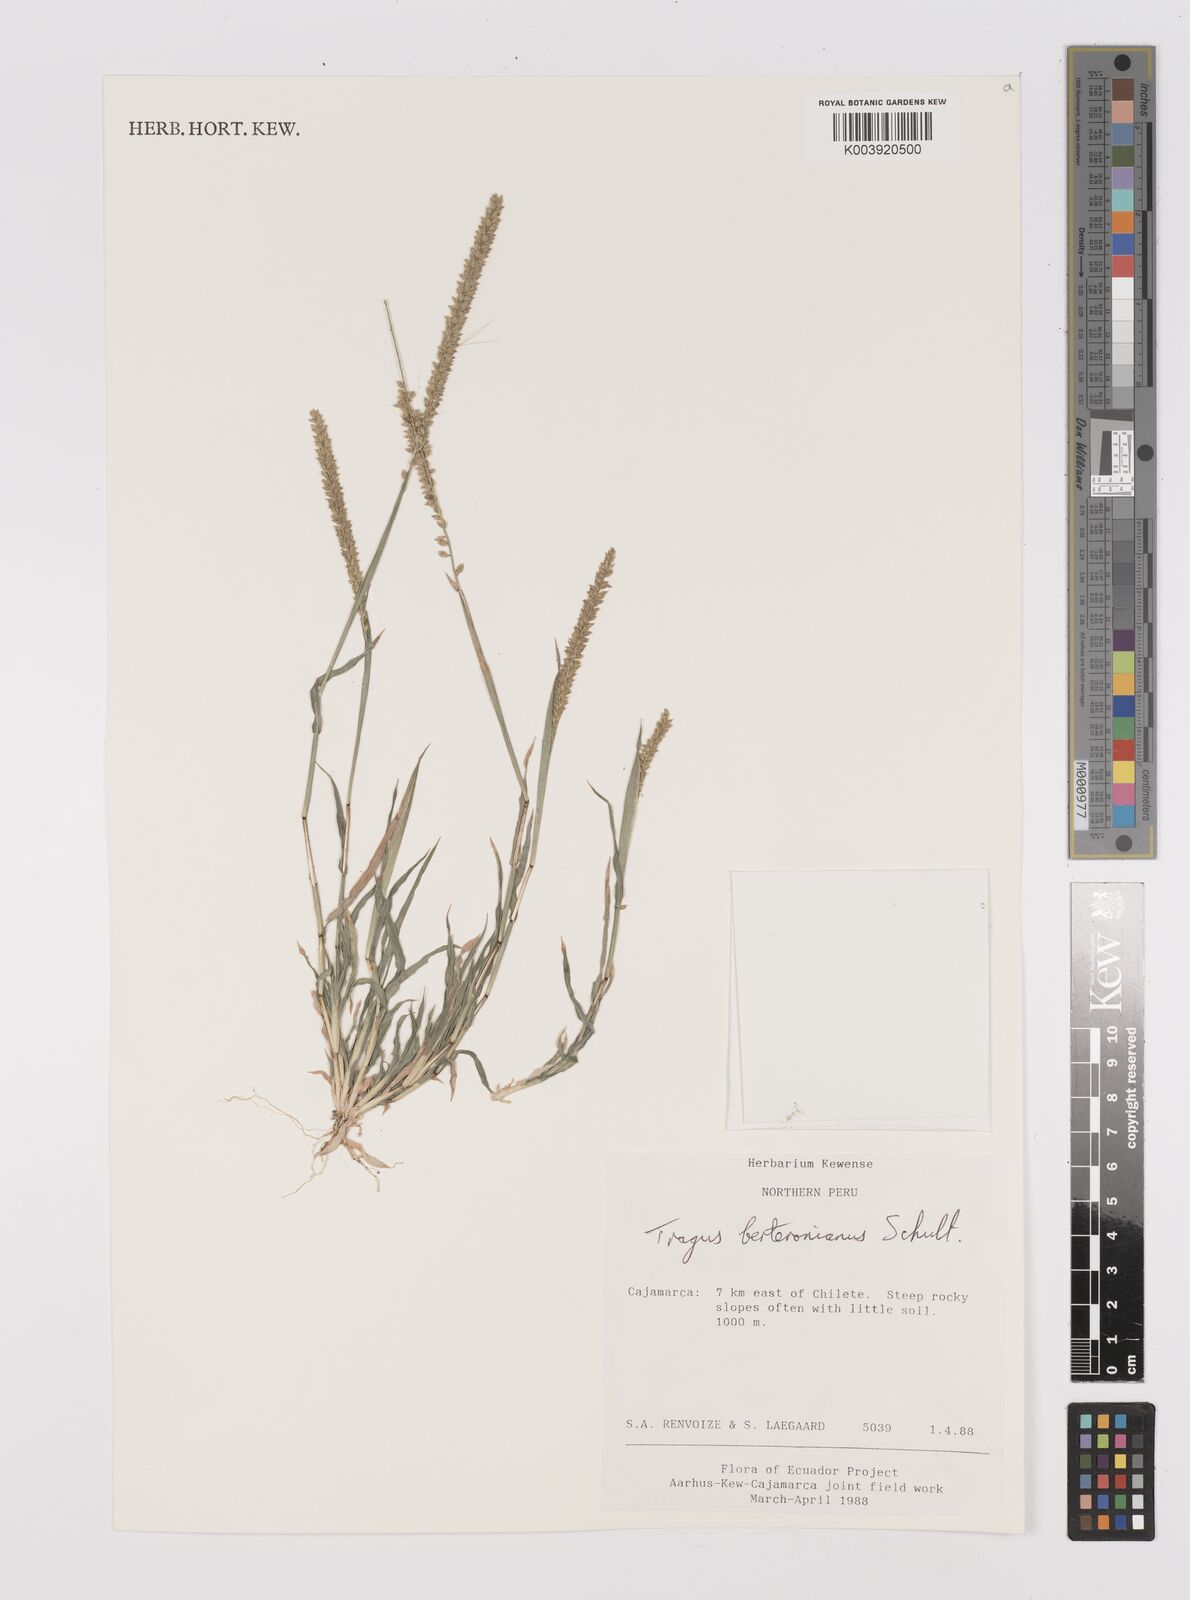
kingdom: Plantae
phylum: Tracheophyta
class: Liliopsida
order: Poales
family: Poaceae
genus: Tragus
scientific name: Tragus berteronianus
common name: African bur-grass
